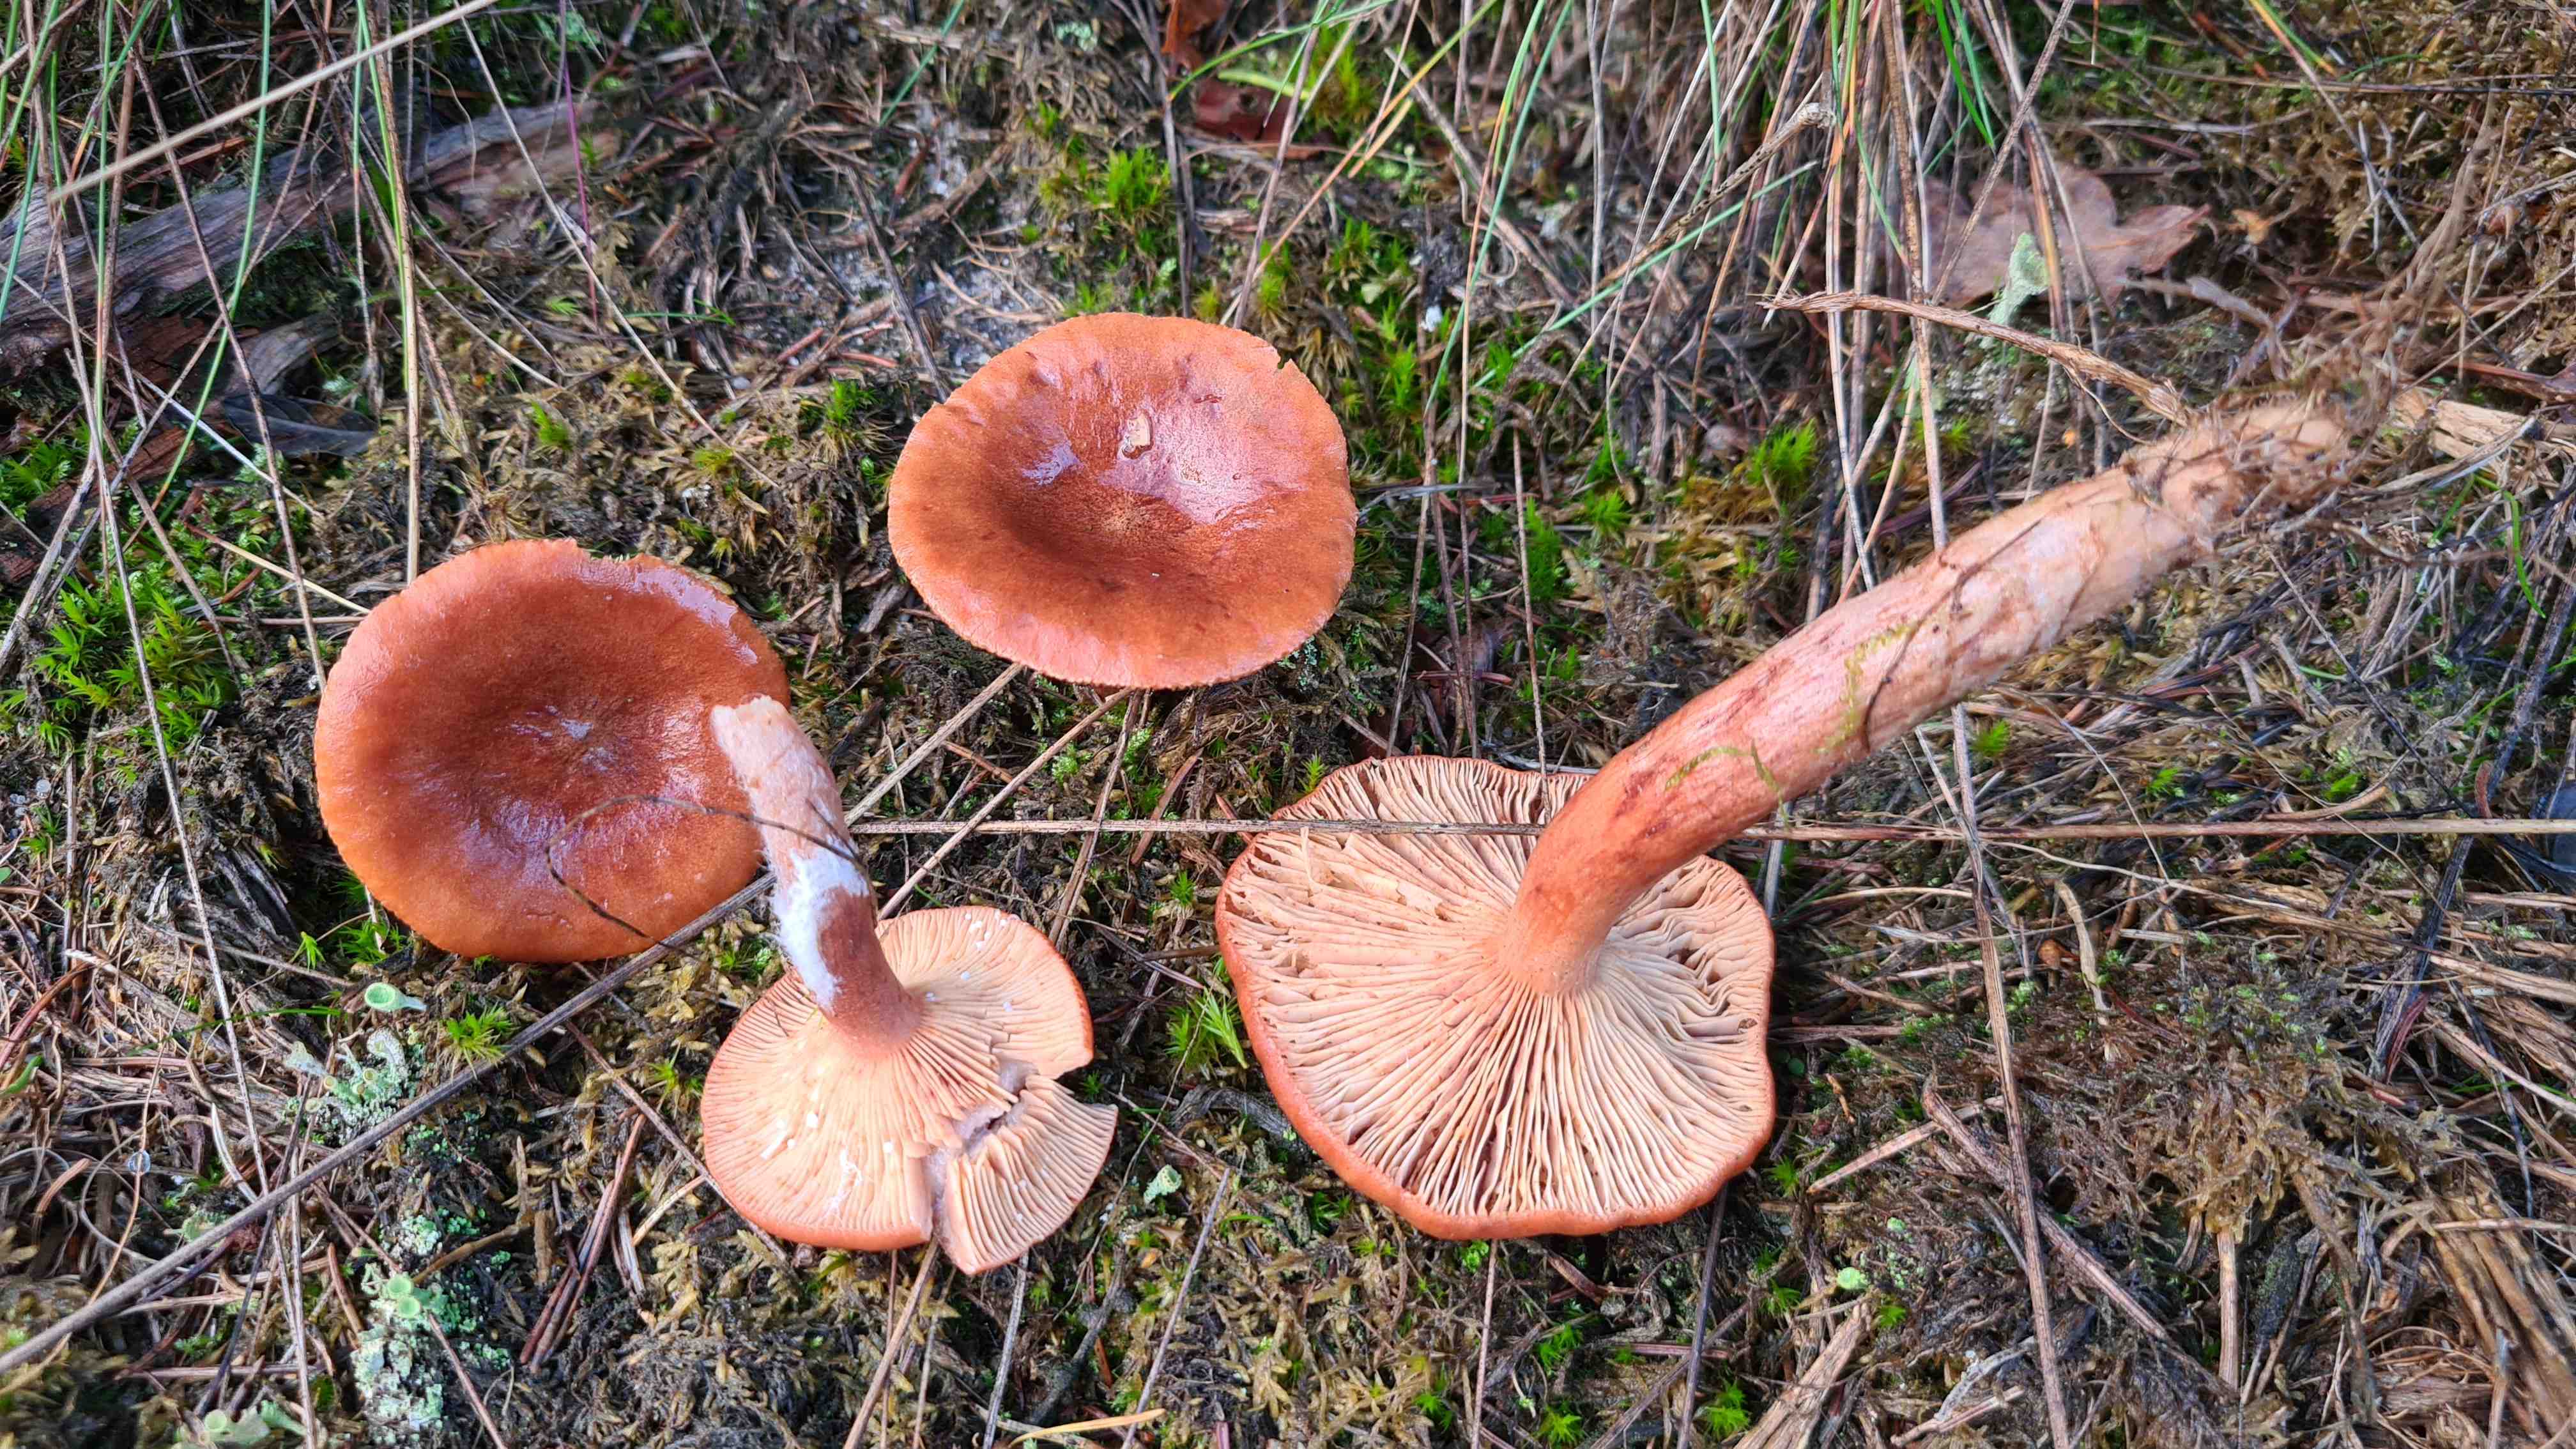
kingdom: Fungi
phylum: Basidiomycota
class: Agaricomycetes
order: Russulales
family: Russulaceae
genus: Lactarius
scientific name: Lactarius rufus
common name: rødbrun mælkehat
